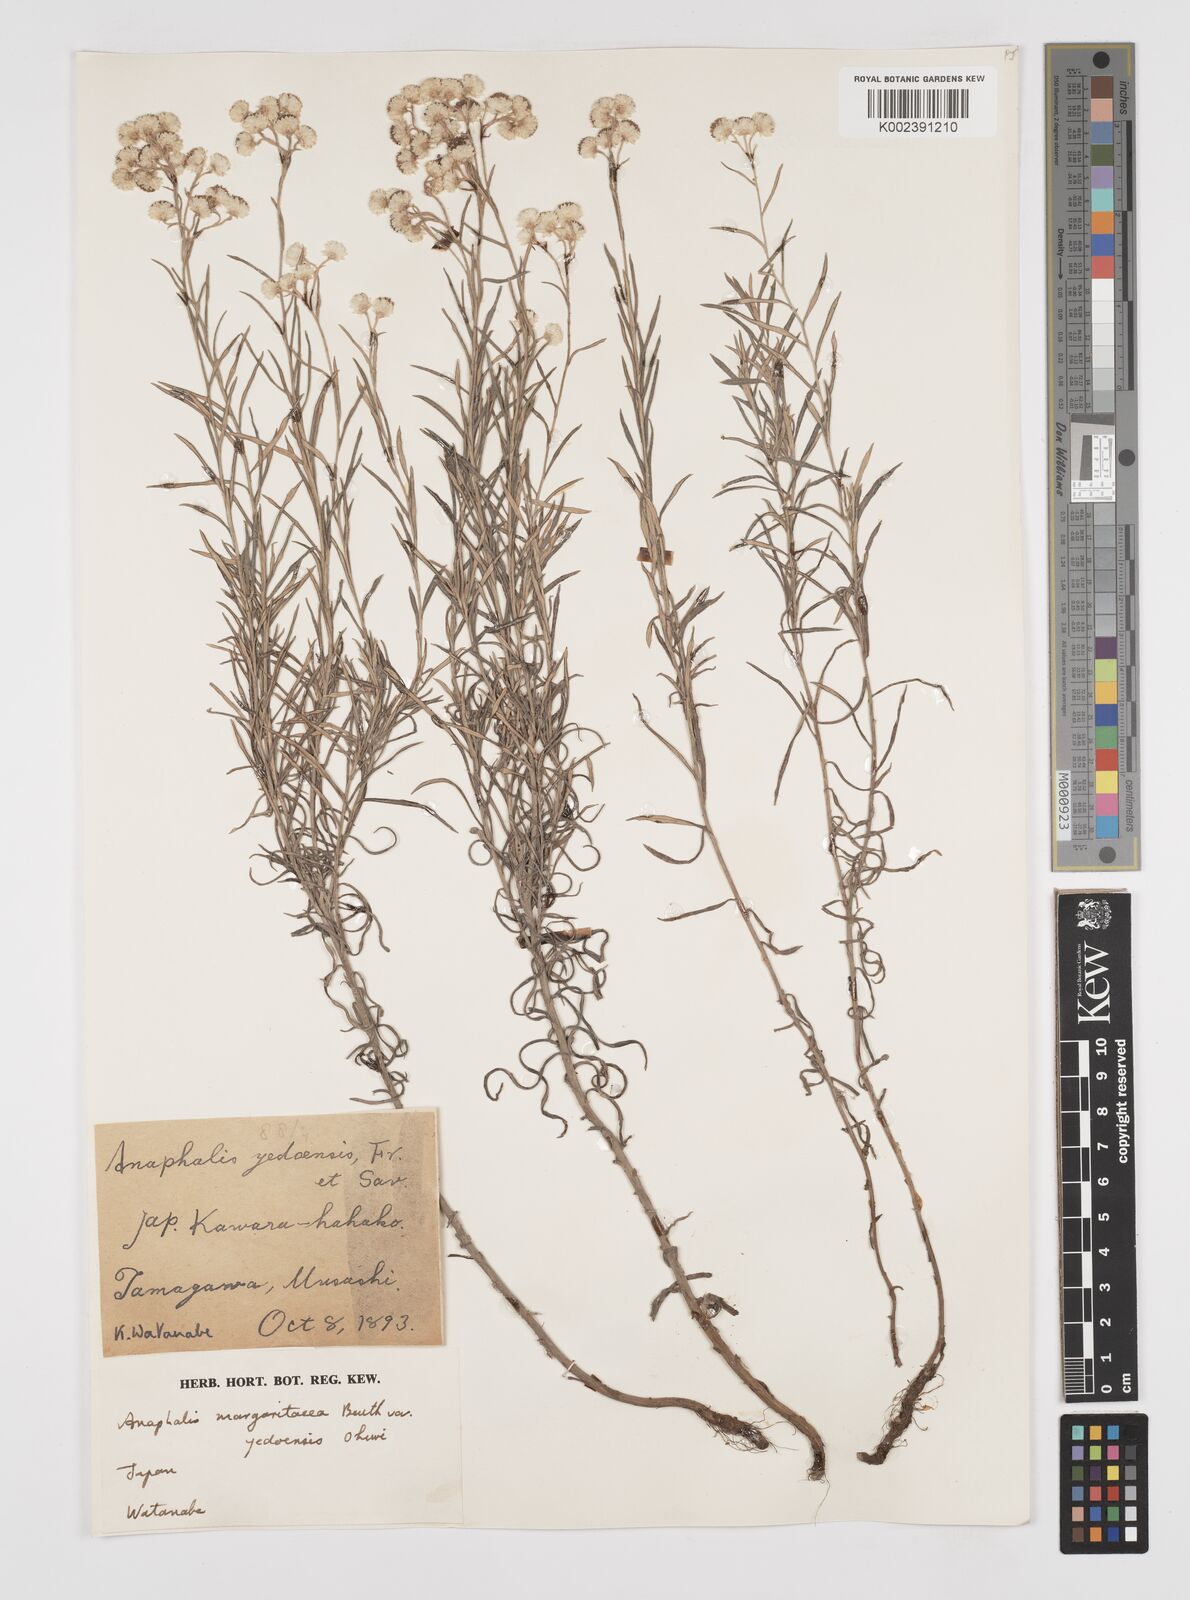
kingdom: Plantae
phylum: Tracheophyta
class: Magnoliopsida
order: Asterales
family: Asteraceae
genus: Anaphalis
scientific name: Anaphalis margaritacea
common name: Pearly everlasting
